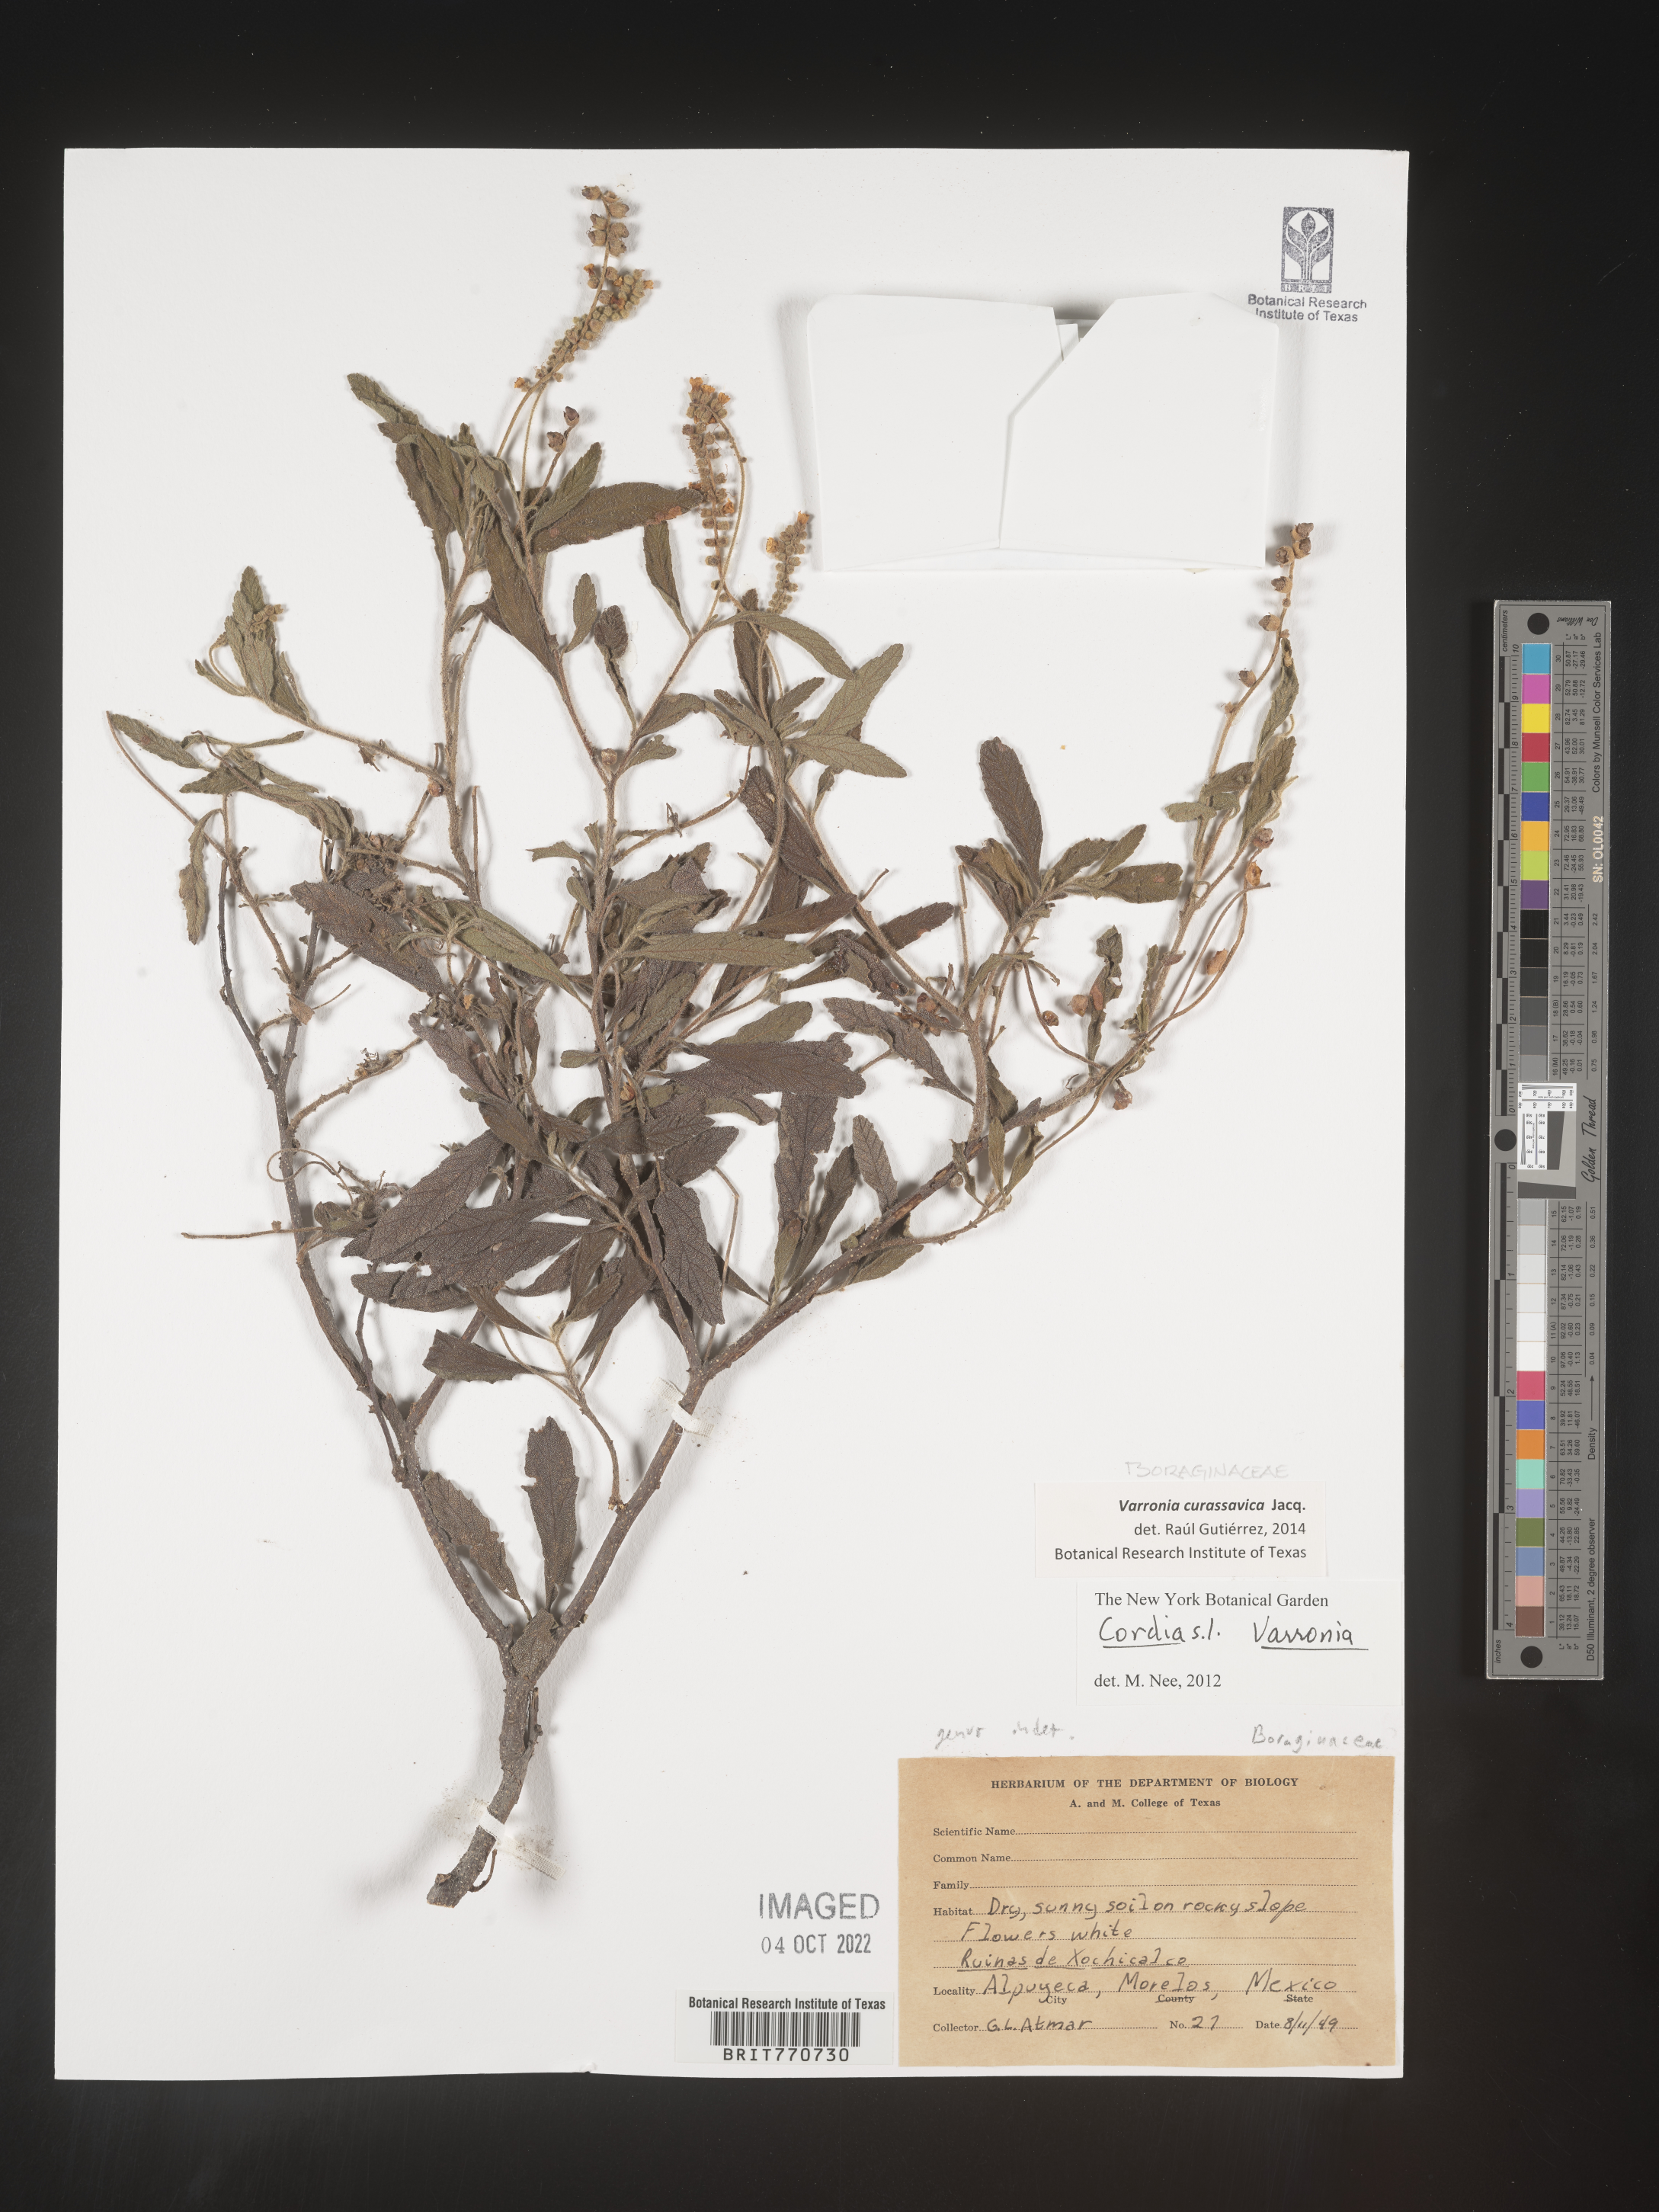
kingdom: Plantae
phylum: Tracheophyta
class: Magnoliopsida
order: Boraginales
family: Cordiaceae
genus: Varronia
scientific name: Varronia
